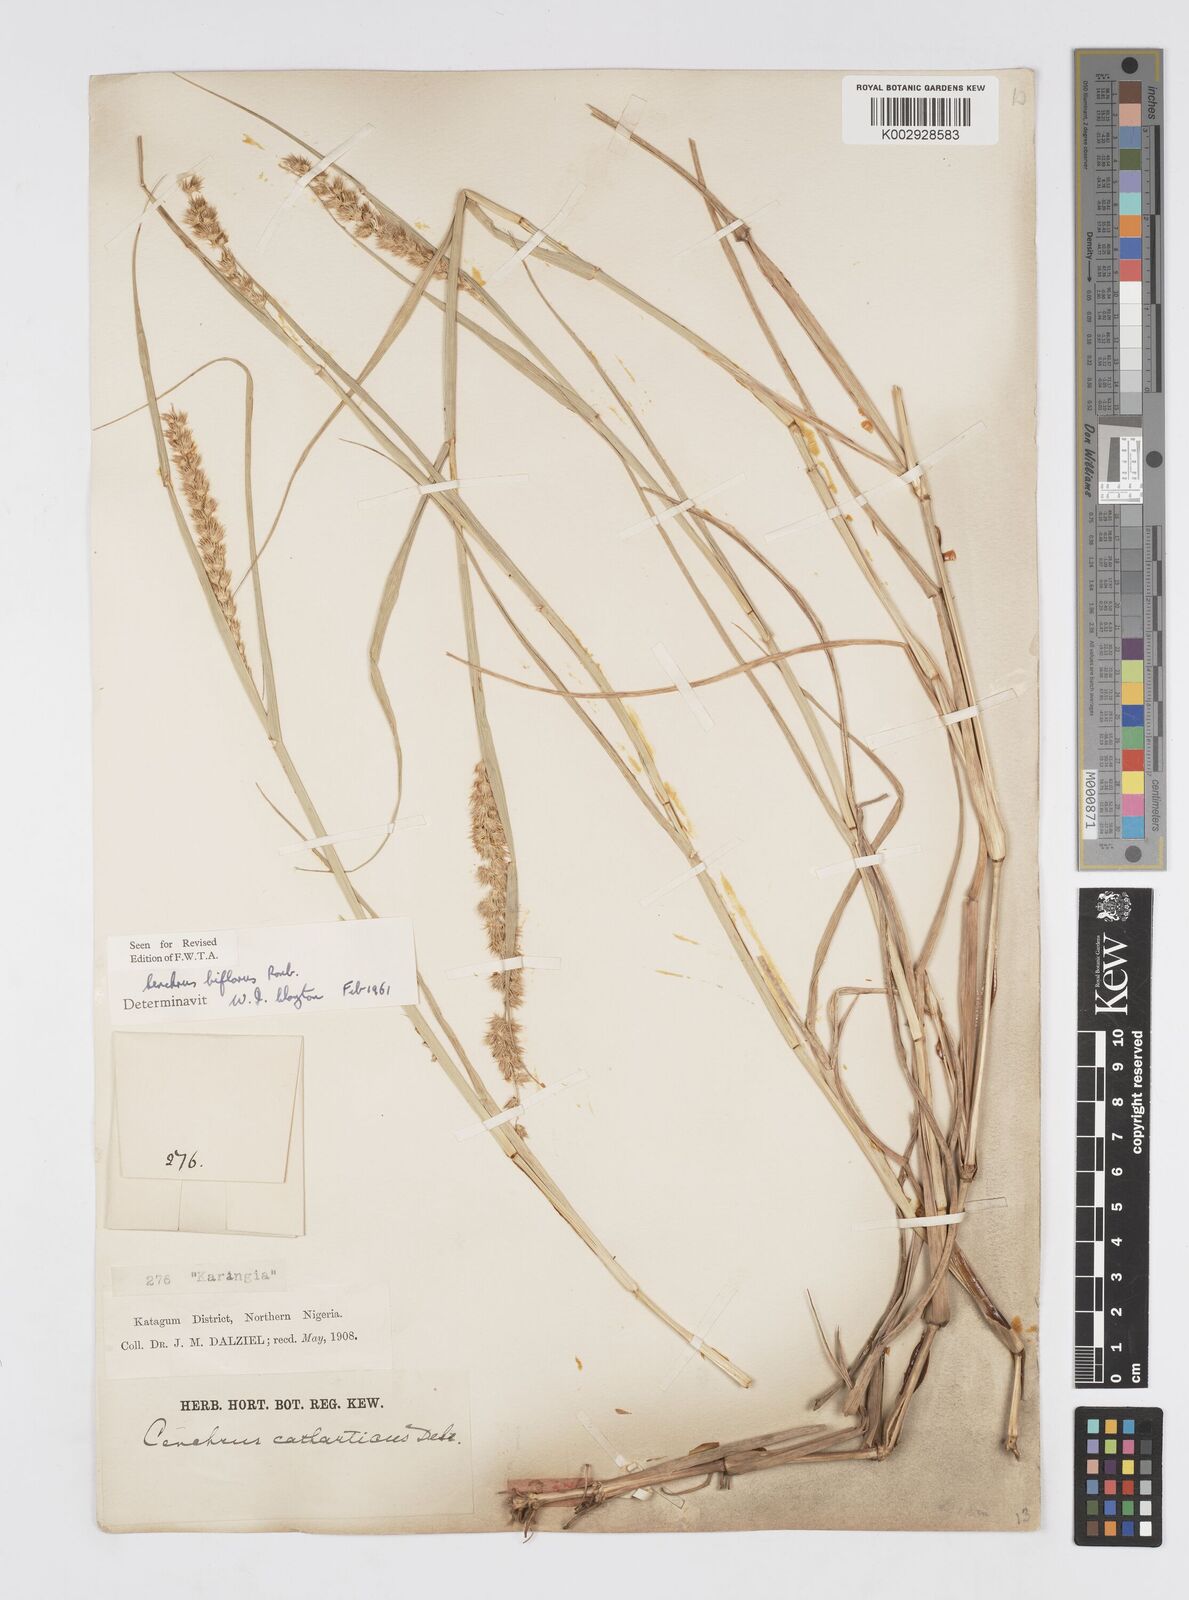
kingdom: Plantae
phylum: Tracheophyta
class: Liliopsida
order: Poales
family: Poaceae
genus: Cenchrus
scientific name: Cenchrus biflorus
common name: Indian sandbur
